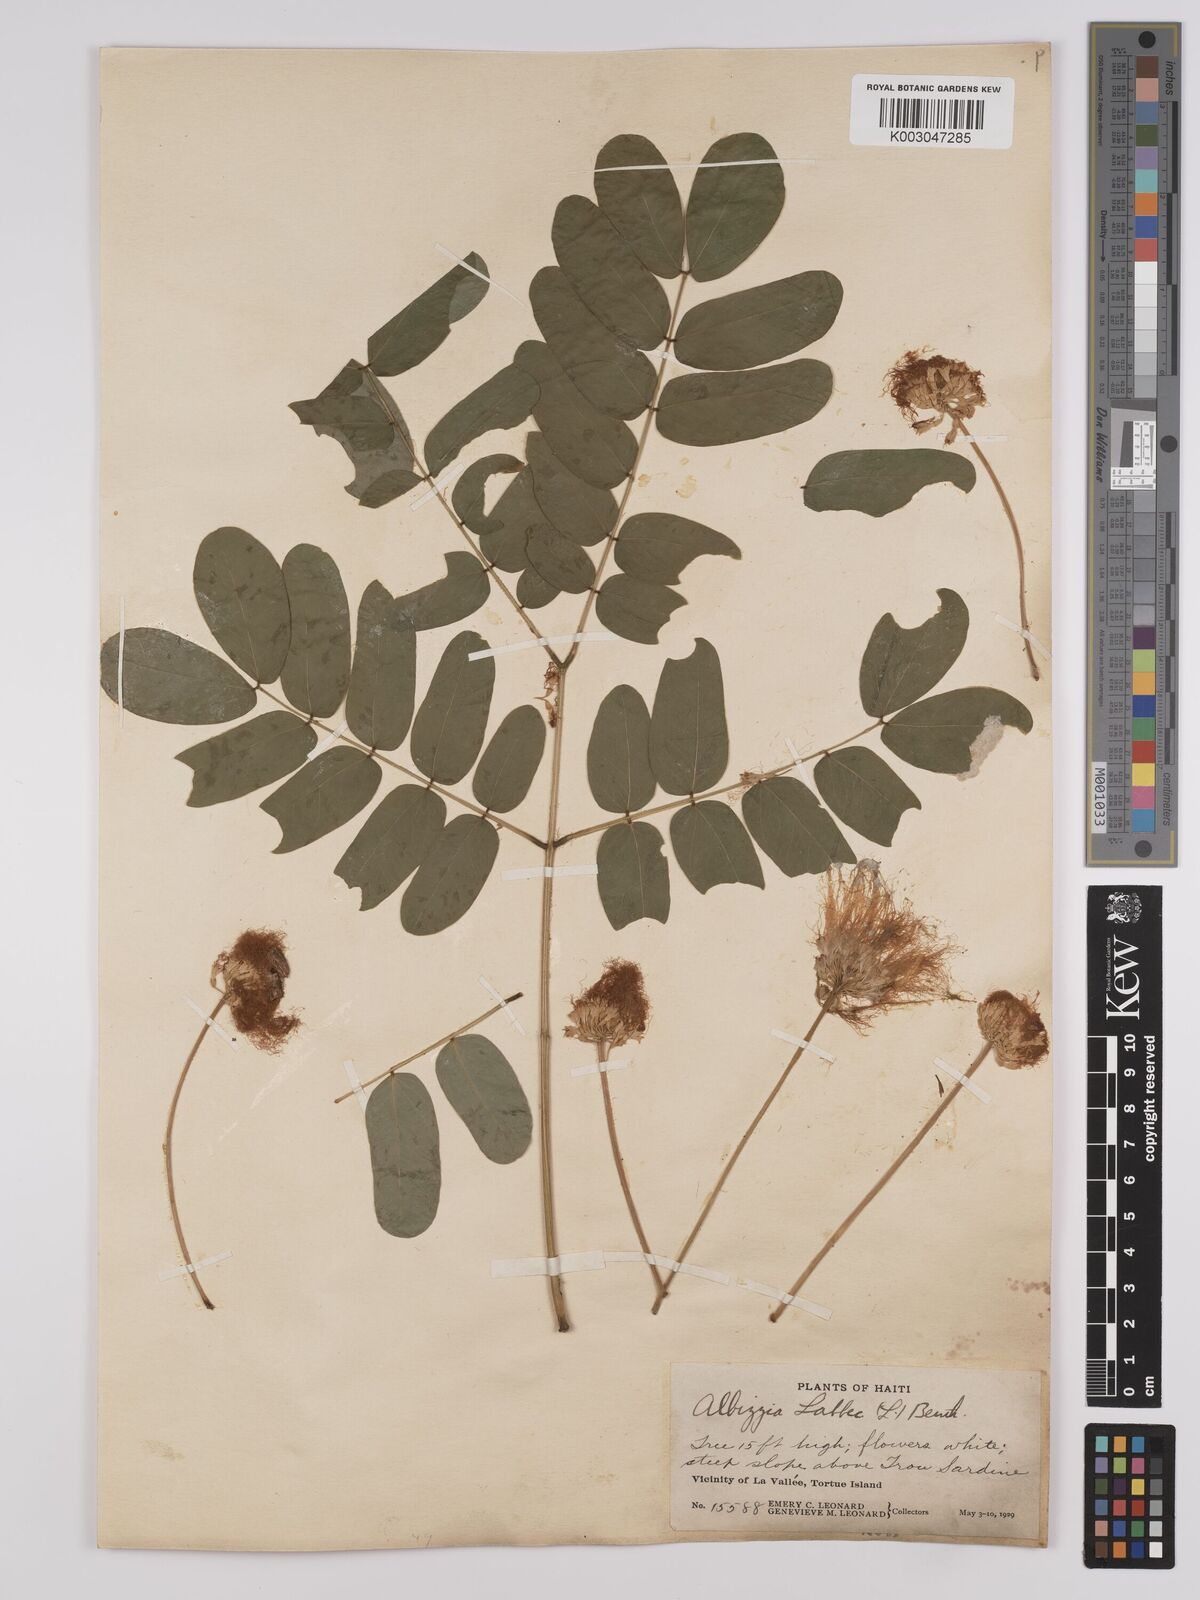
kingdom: Plantae
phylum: Tracheophyta
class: Magnoliopsida
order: Fabales
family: Fabaceae
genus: Albizia
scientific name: Albizia lebbeck
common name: Woman's tongue
